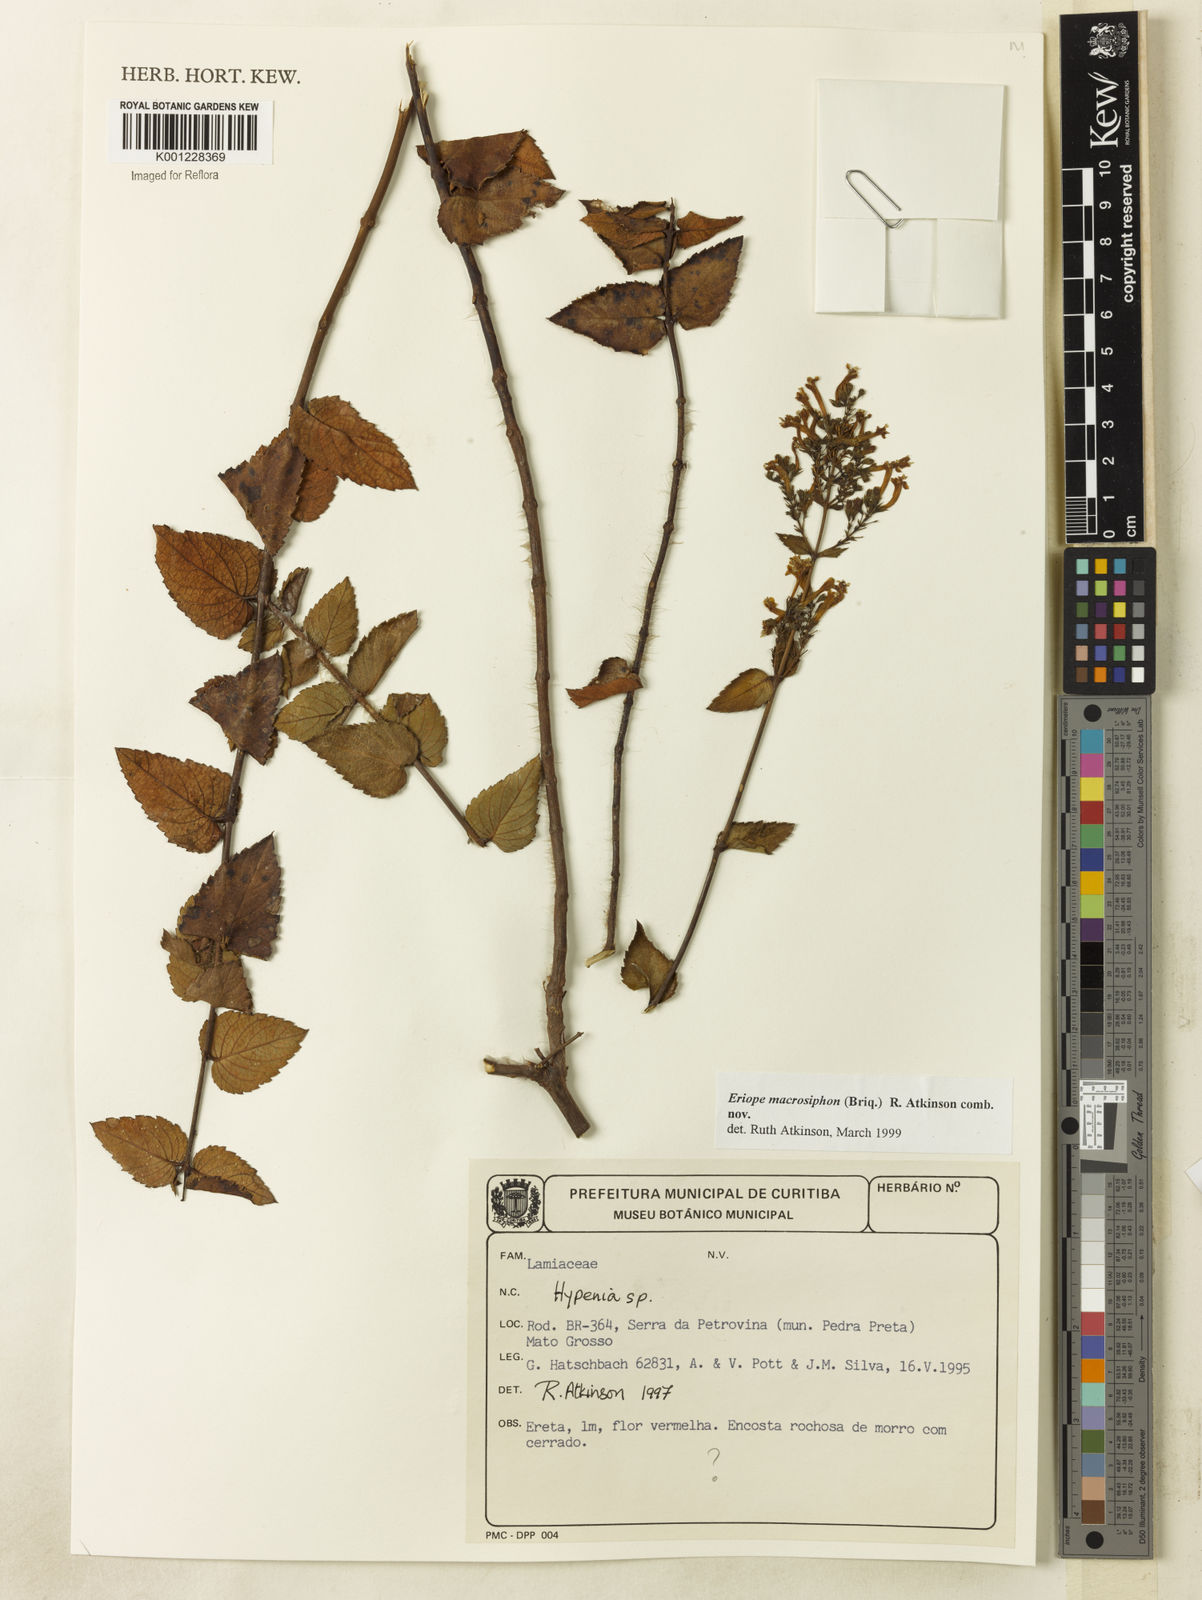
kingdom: Plantae
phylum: Tracheophyta
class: Magnoliopsida
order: Lamiales
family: Lamiaceae
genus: Hypenia
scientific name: Hypenia macrosiphon
